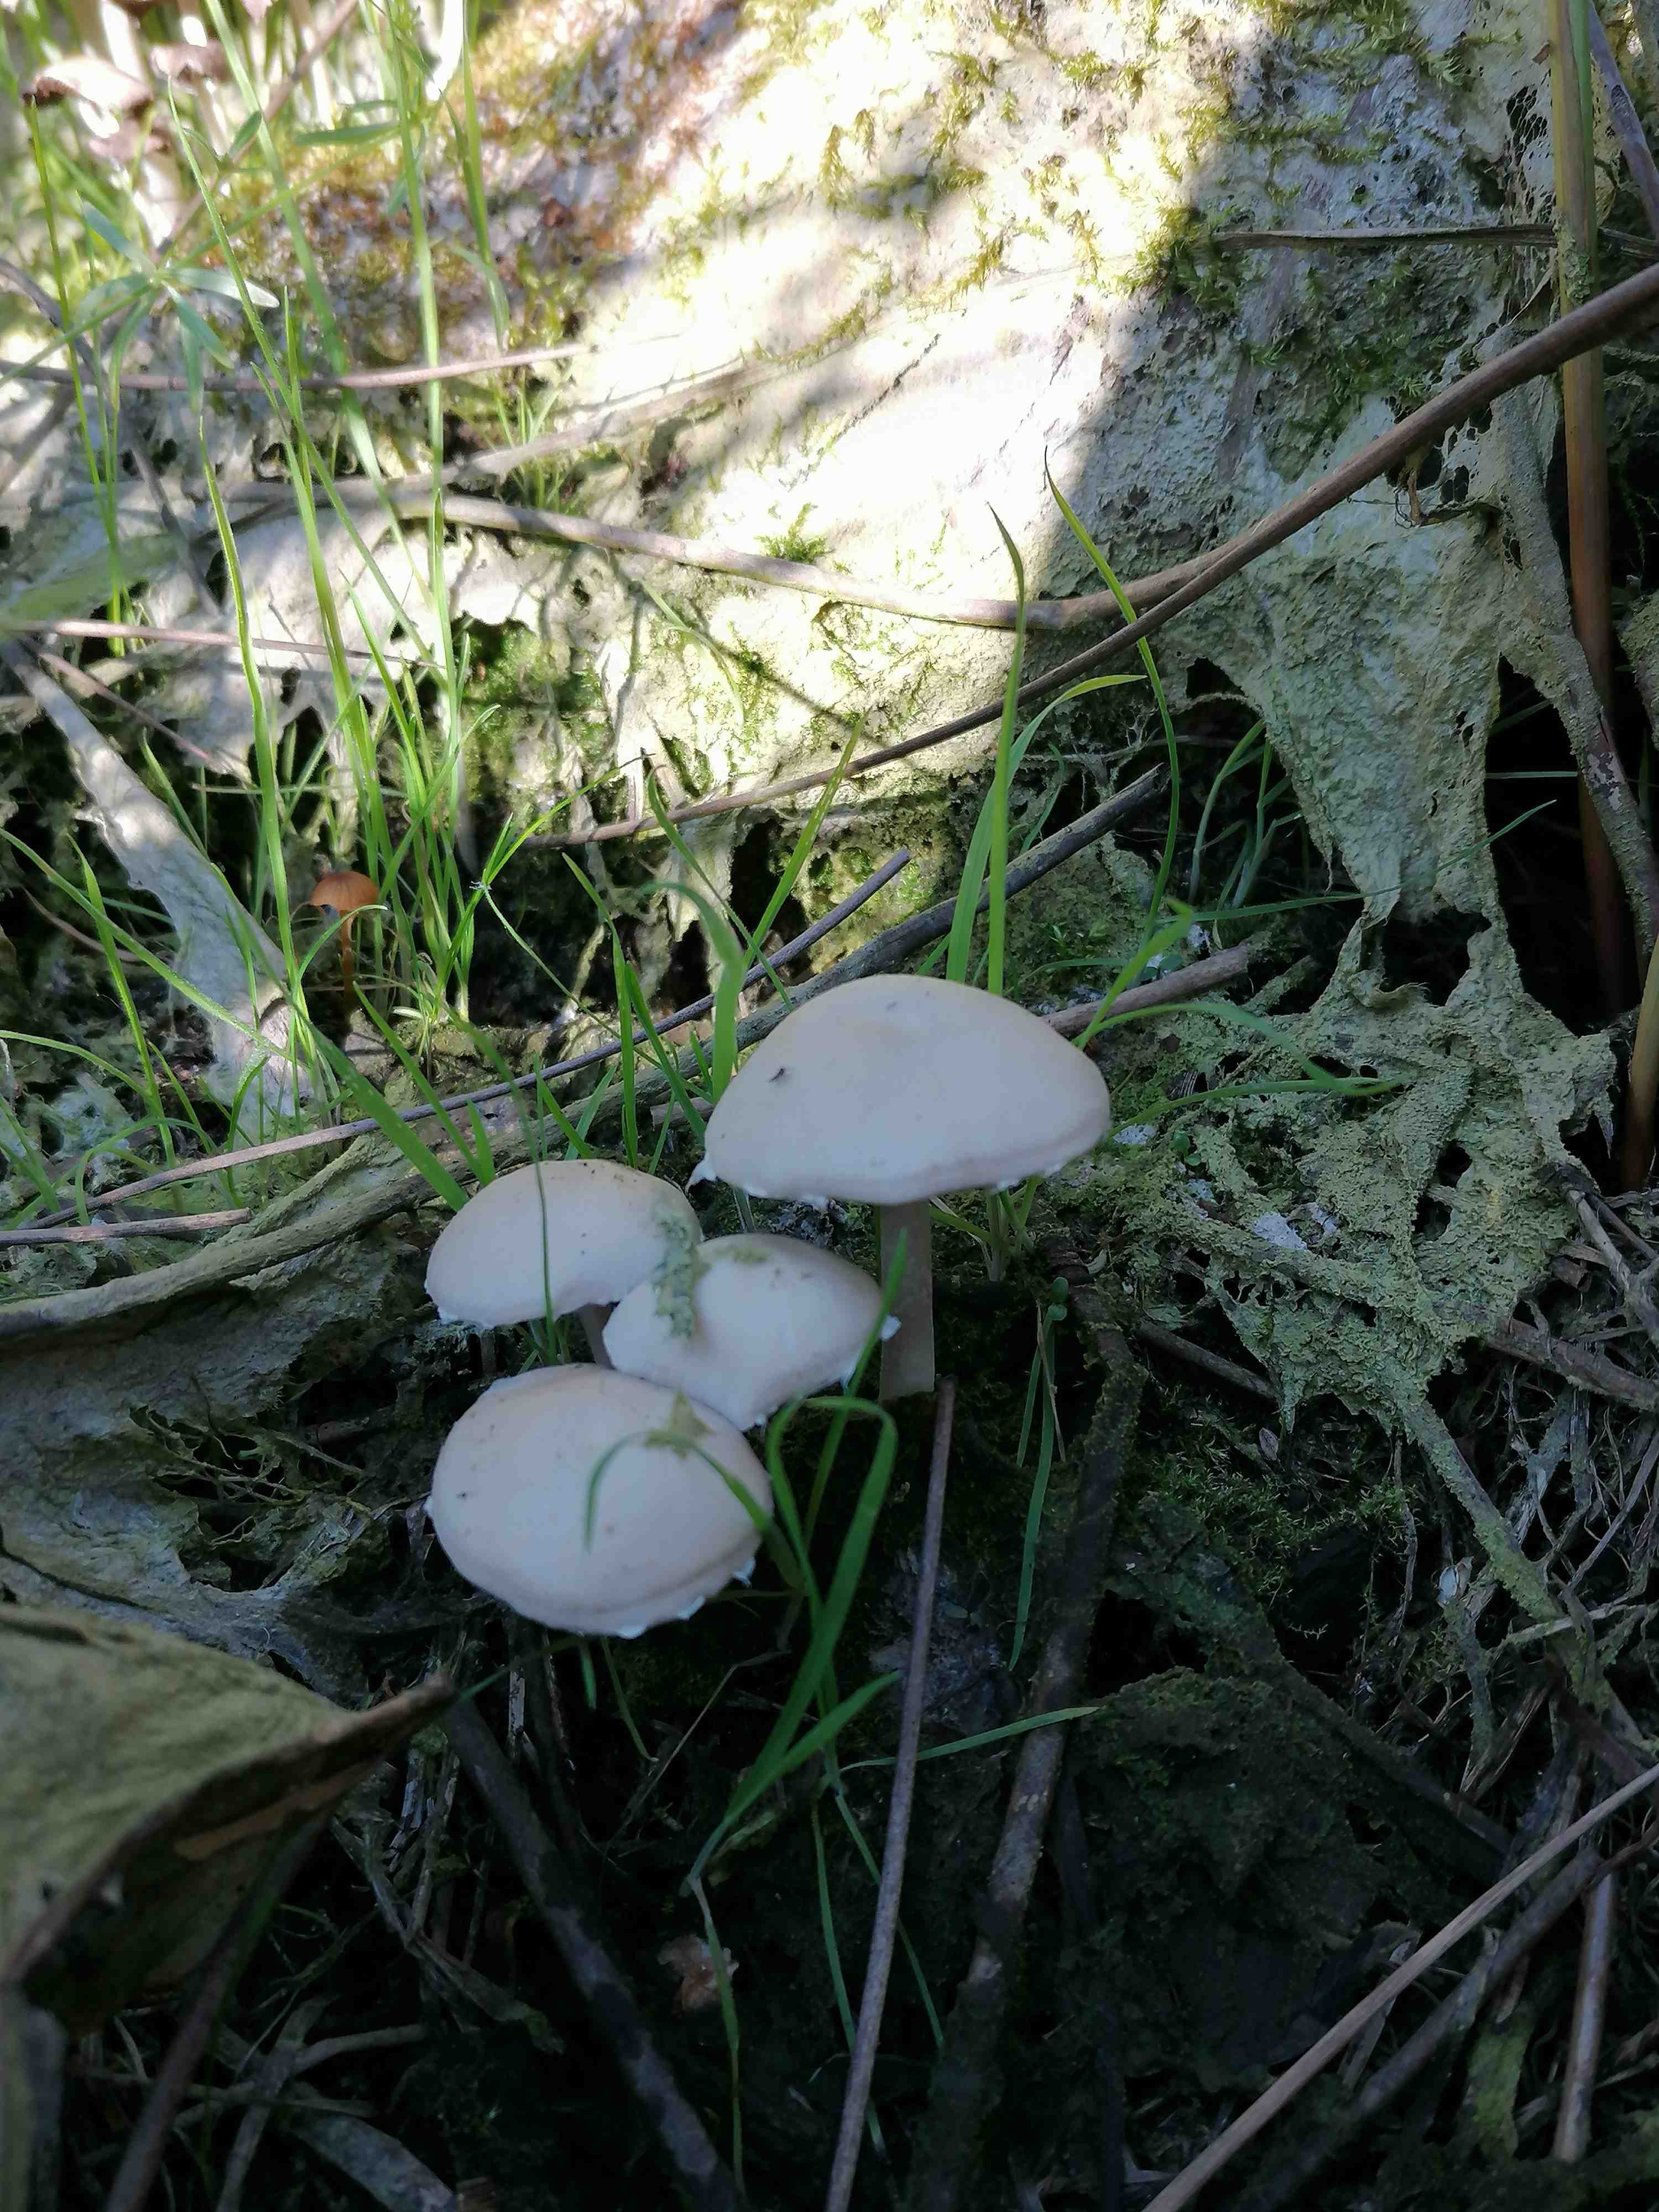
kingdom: Fungi
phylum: Basidiomycota
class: Agaricomycetes
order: Agaricales
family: Psathyrellaceae
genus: Candolleomyces
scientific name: Candolleomyces candolleanus
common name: Candolles mørkhat
